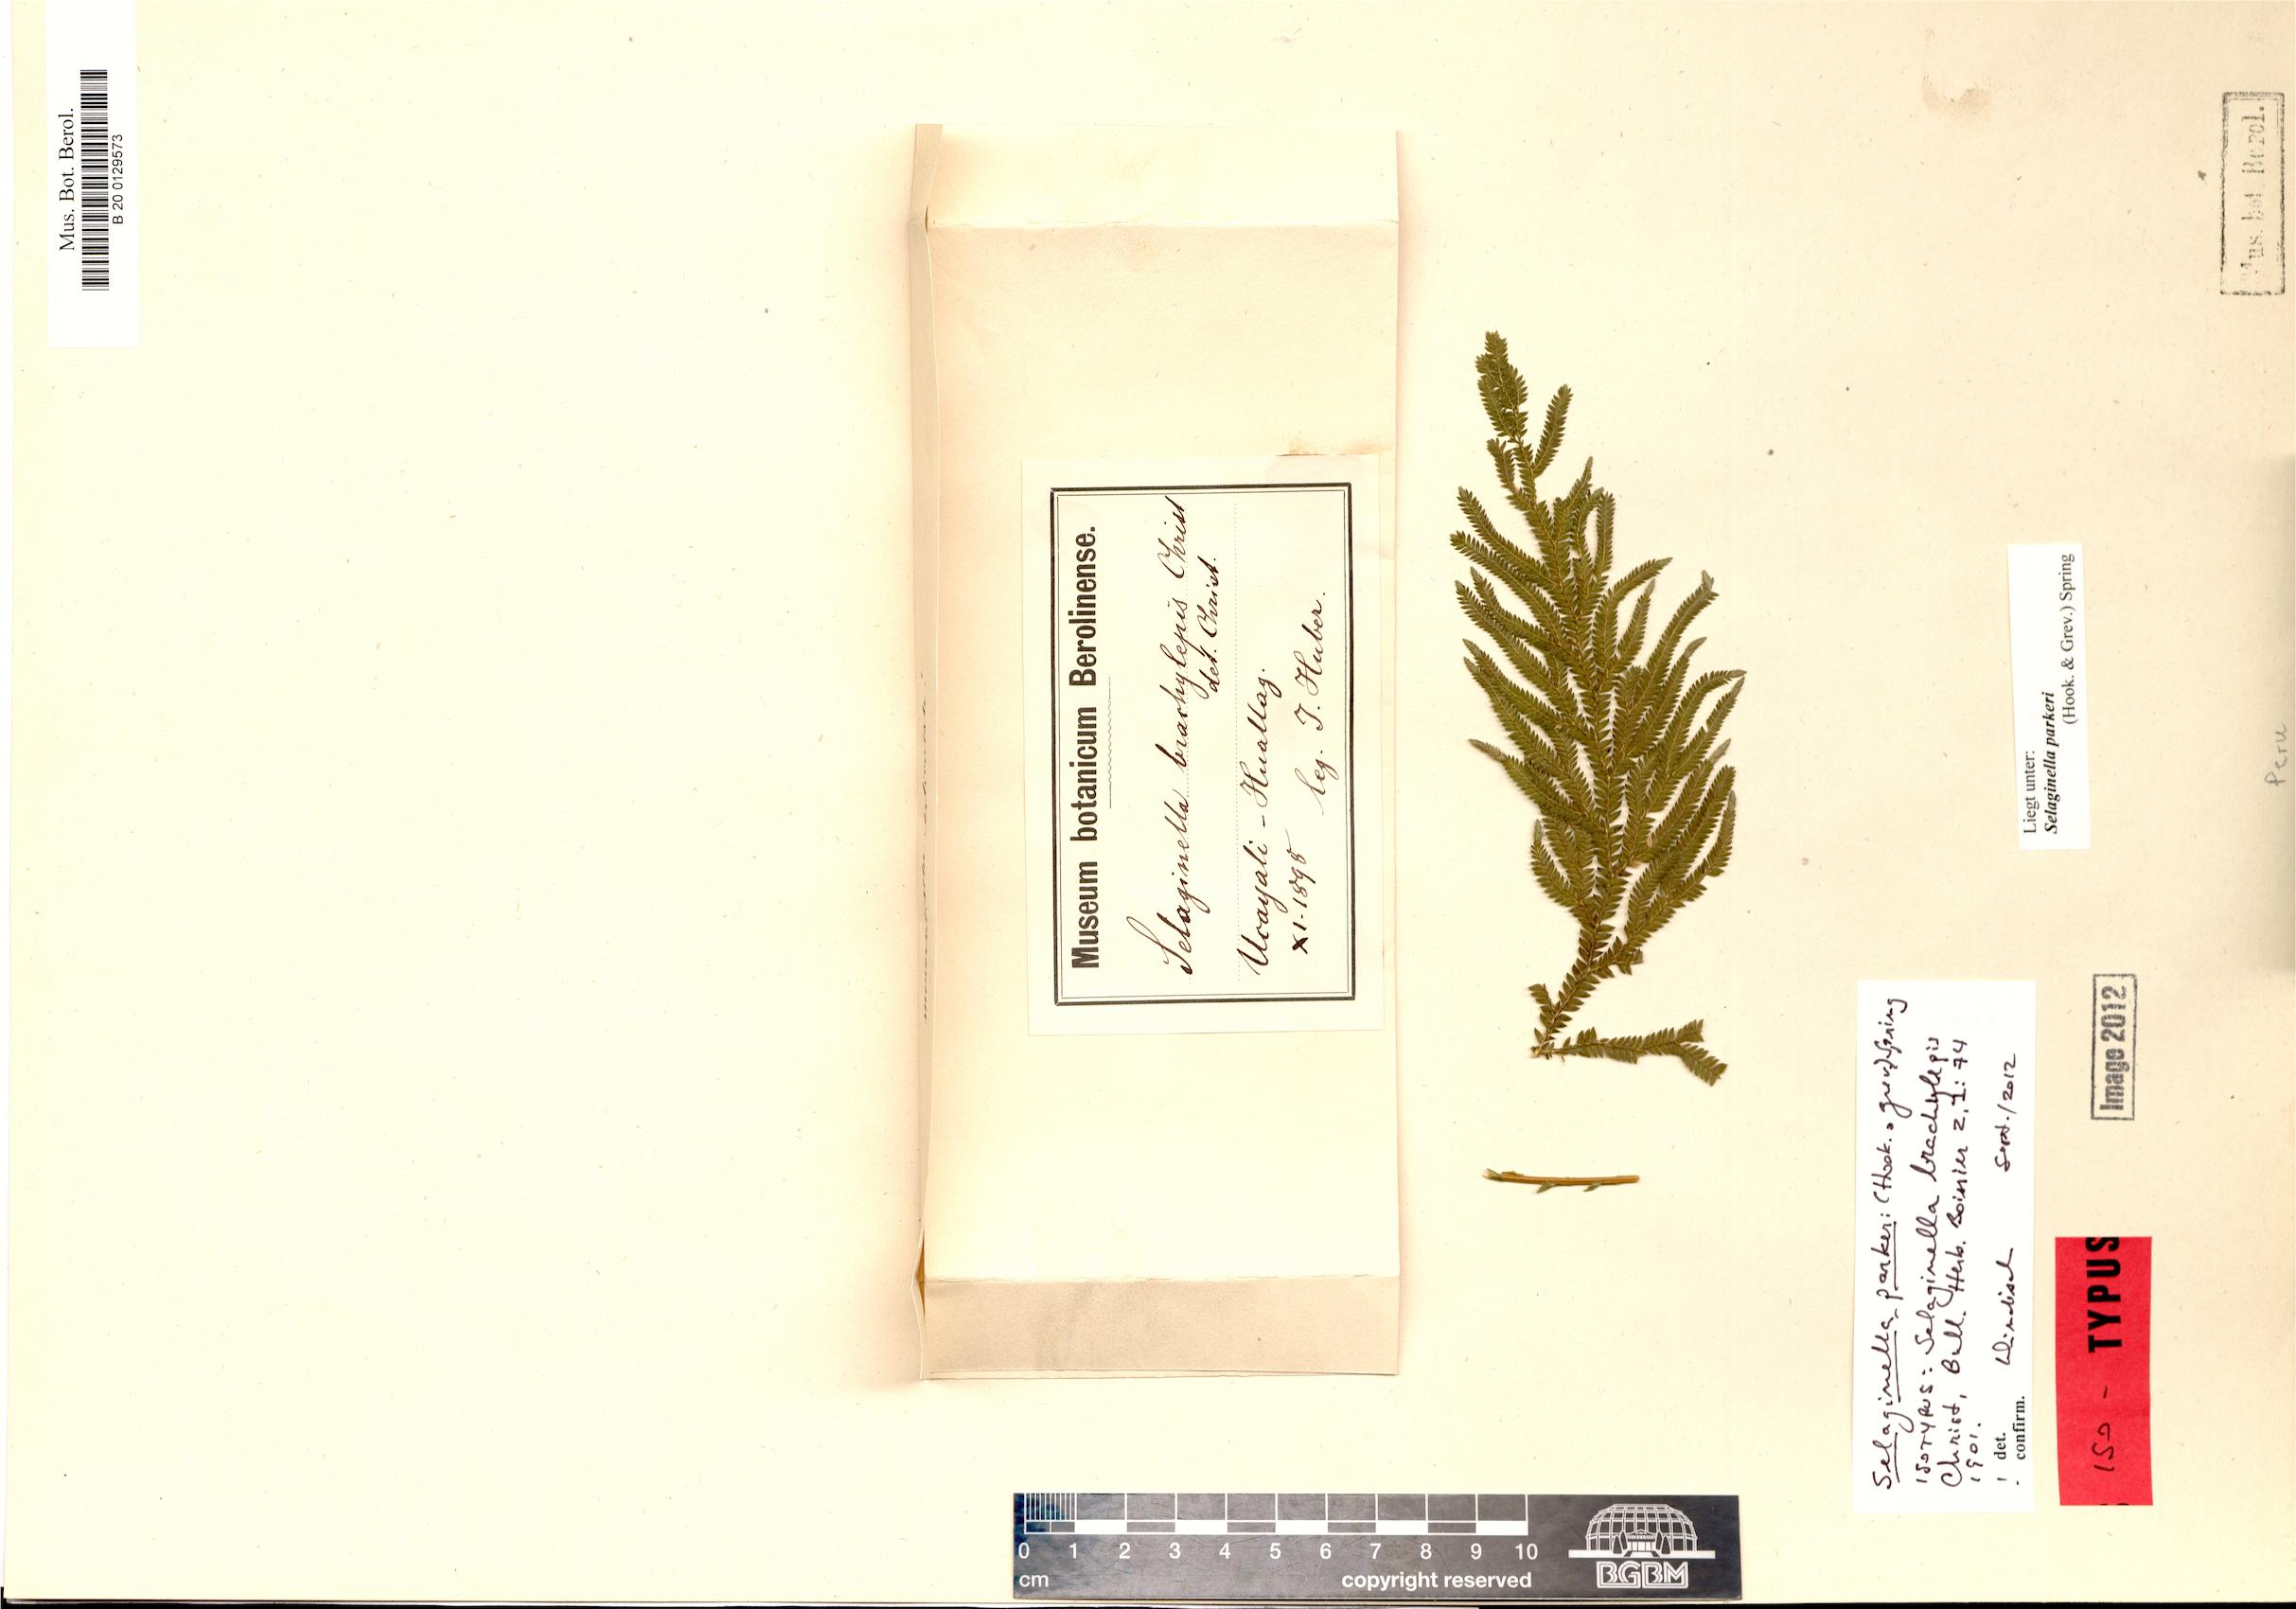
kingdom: Plantae
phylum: Tracheophyta
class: Lycopodiopsida
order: Selaginellales
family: Selaginellaceae
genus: Selaginella
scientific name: Selaginella parkeri
